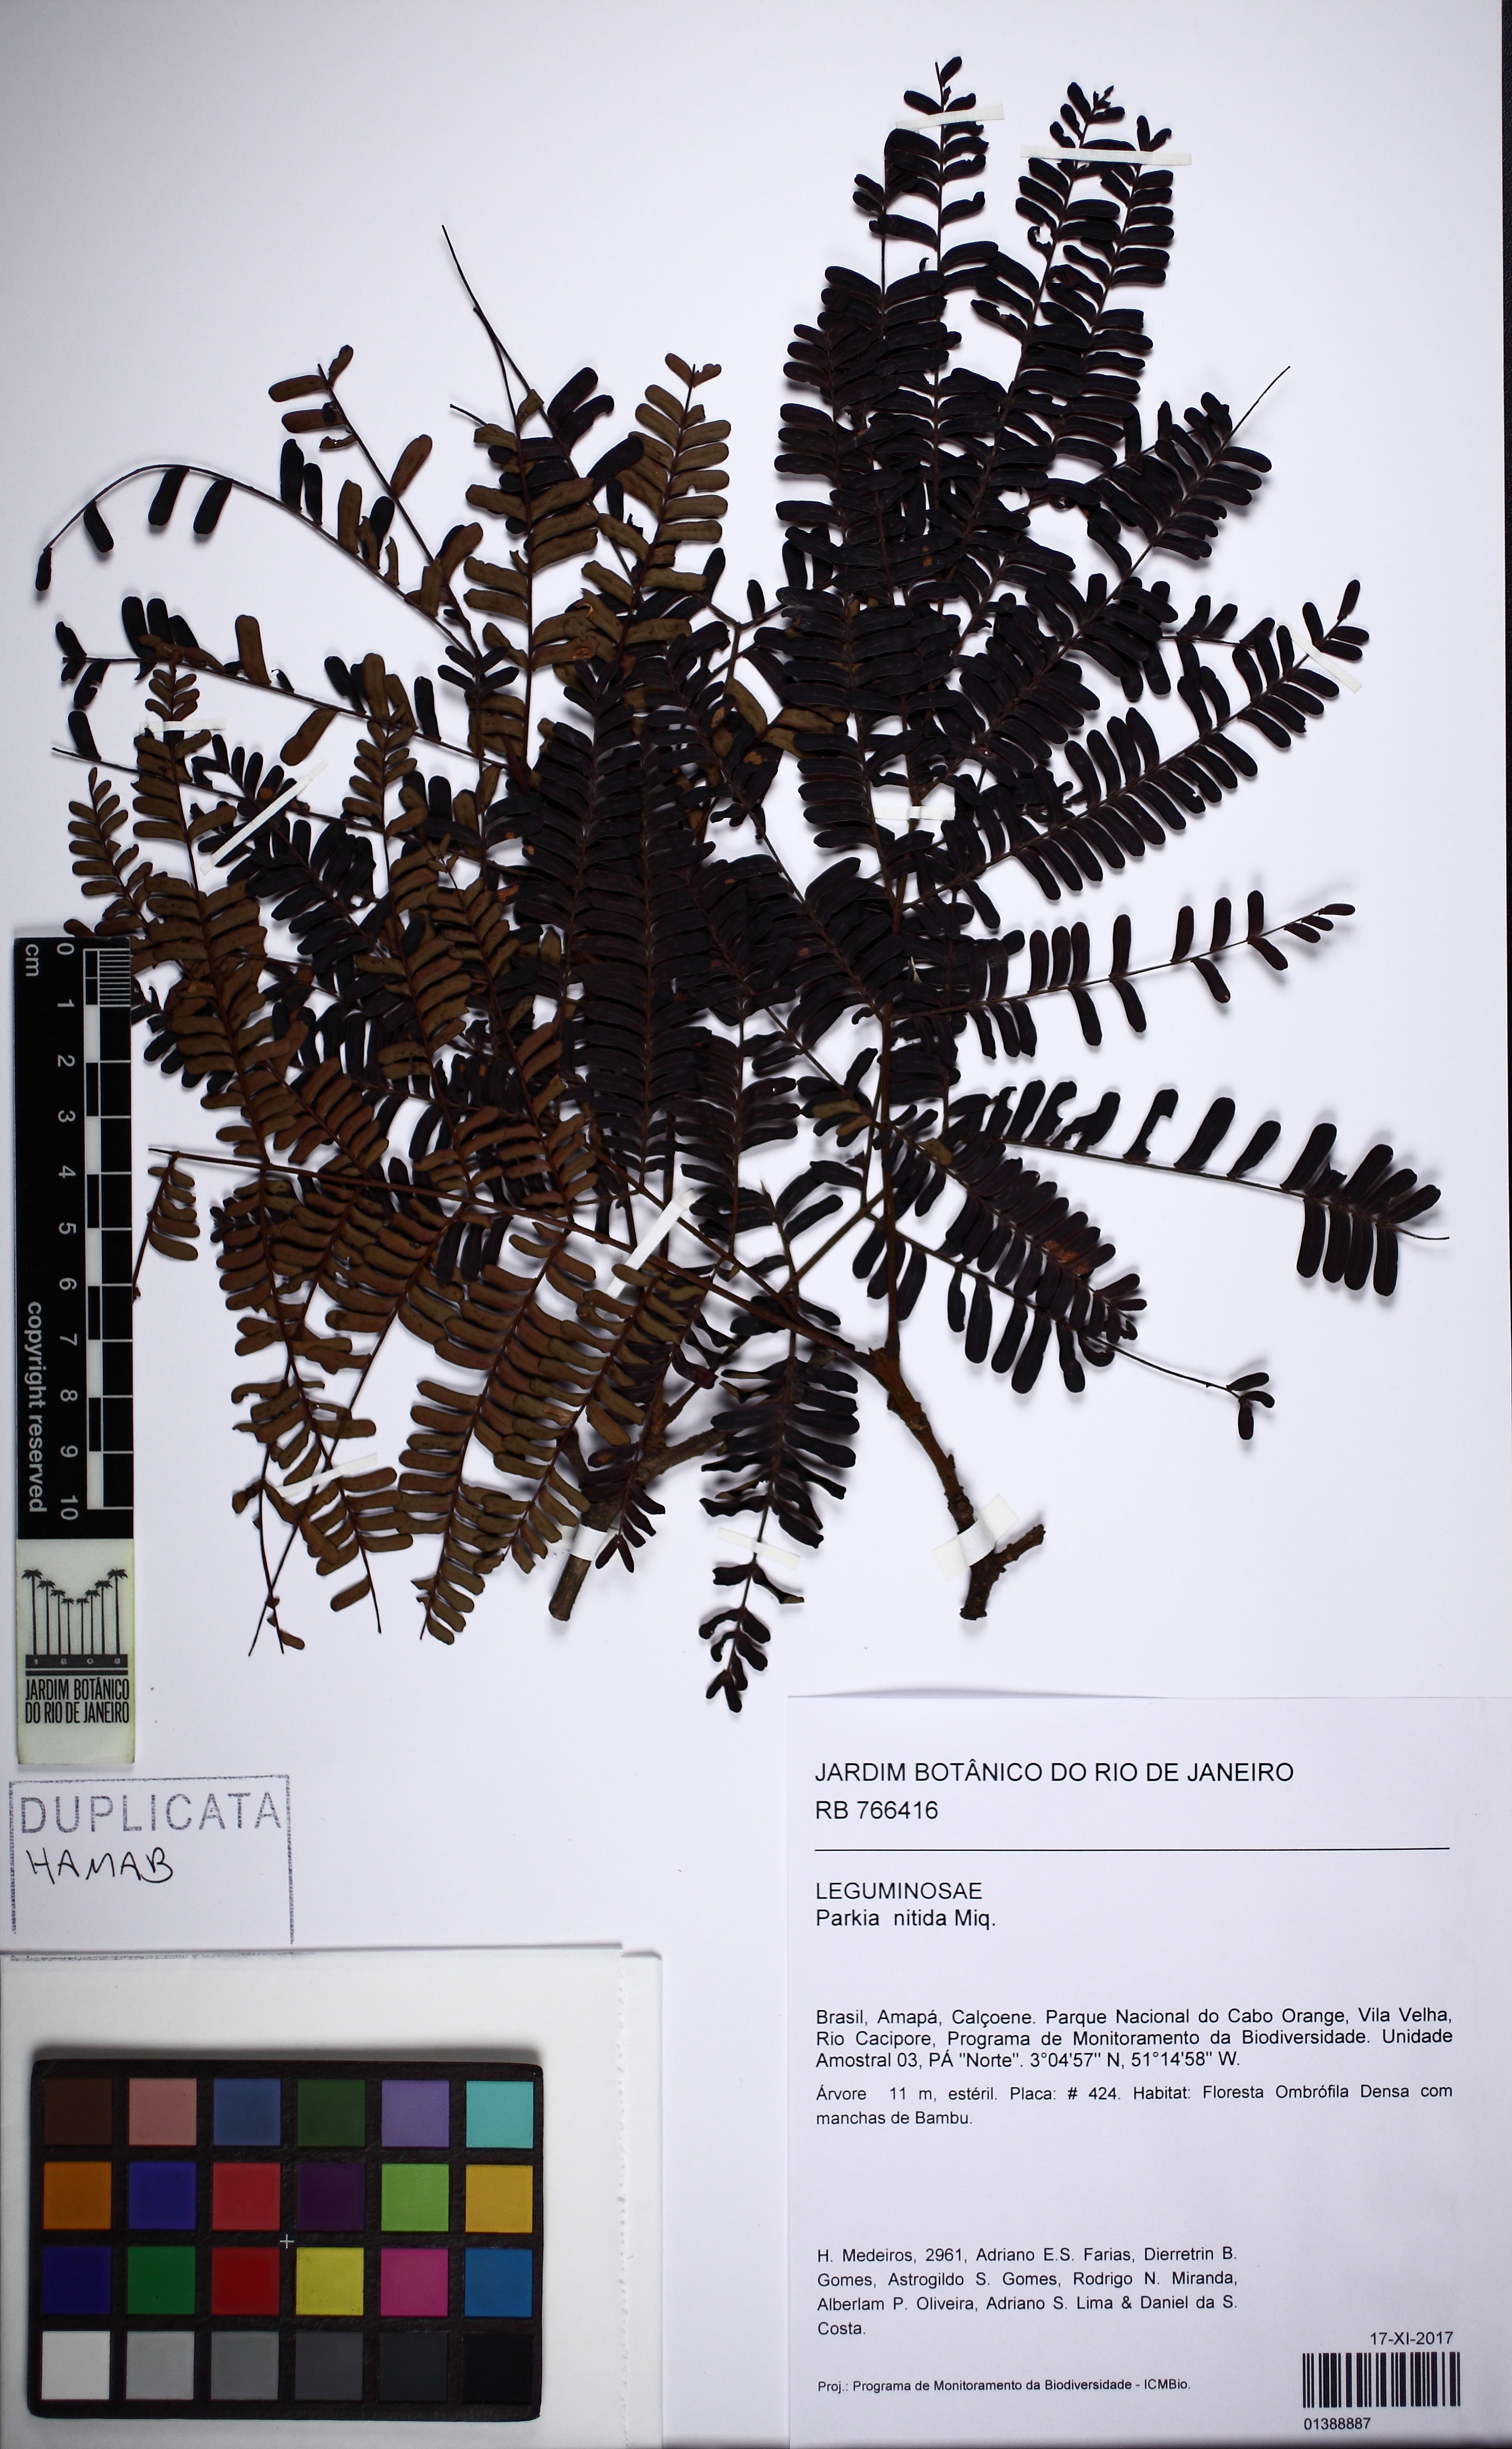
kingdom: Plantae
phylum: Tracheophyta
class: Magnoliopsida
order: Fabales
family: Fabaceae
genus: Parkia
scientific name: Parkia nitida
